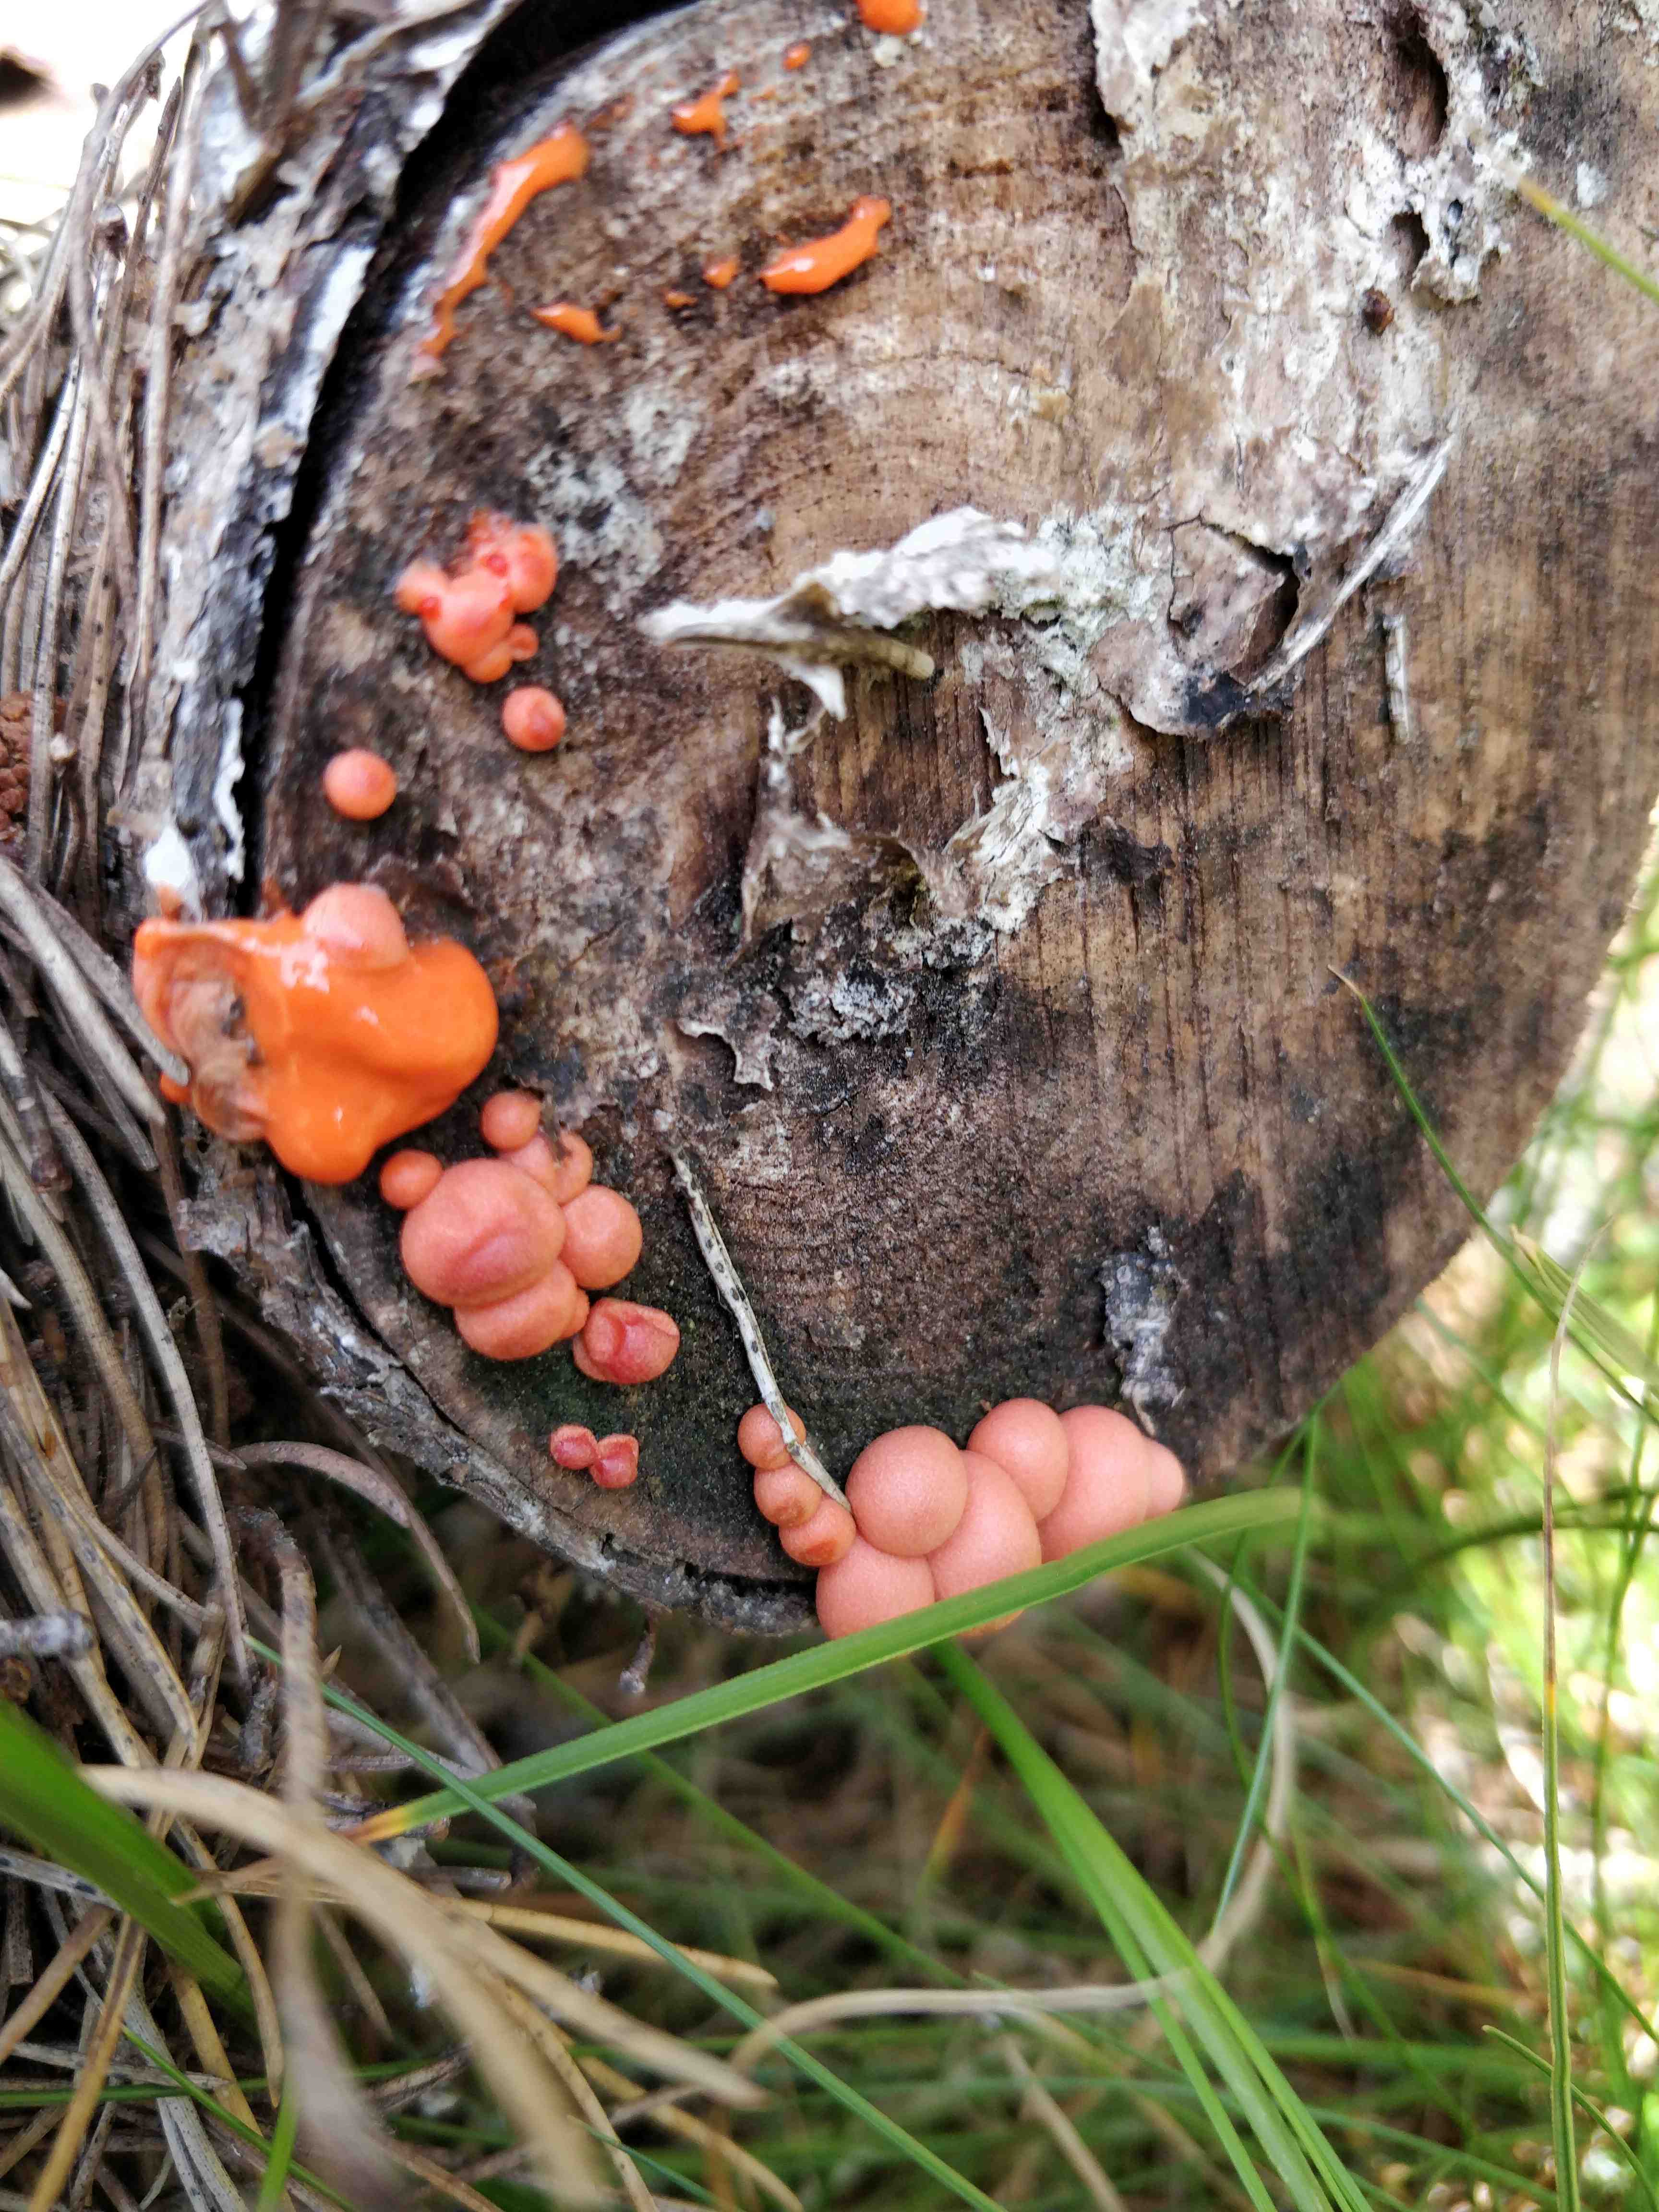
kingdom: Protozoa
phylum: Mycetozoa
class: Myxomycetes
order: Cribrariales
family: Tubiferaceae
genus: Lycogala
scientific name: Lycogala epidendrum
